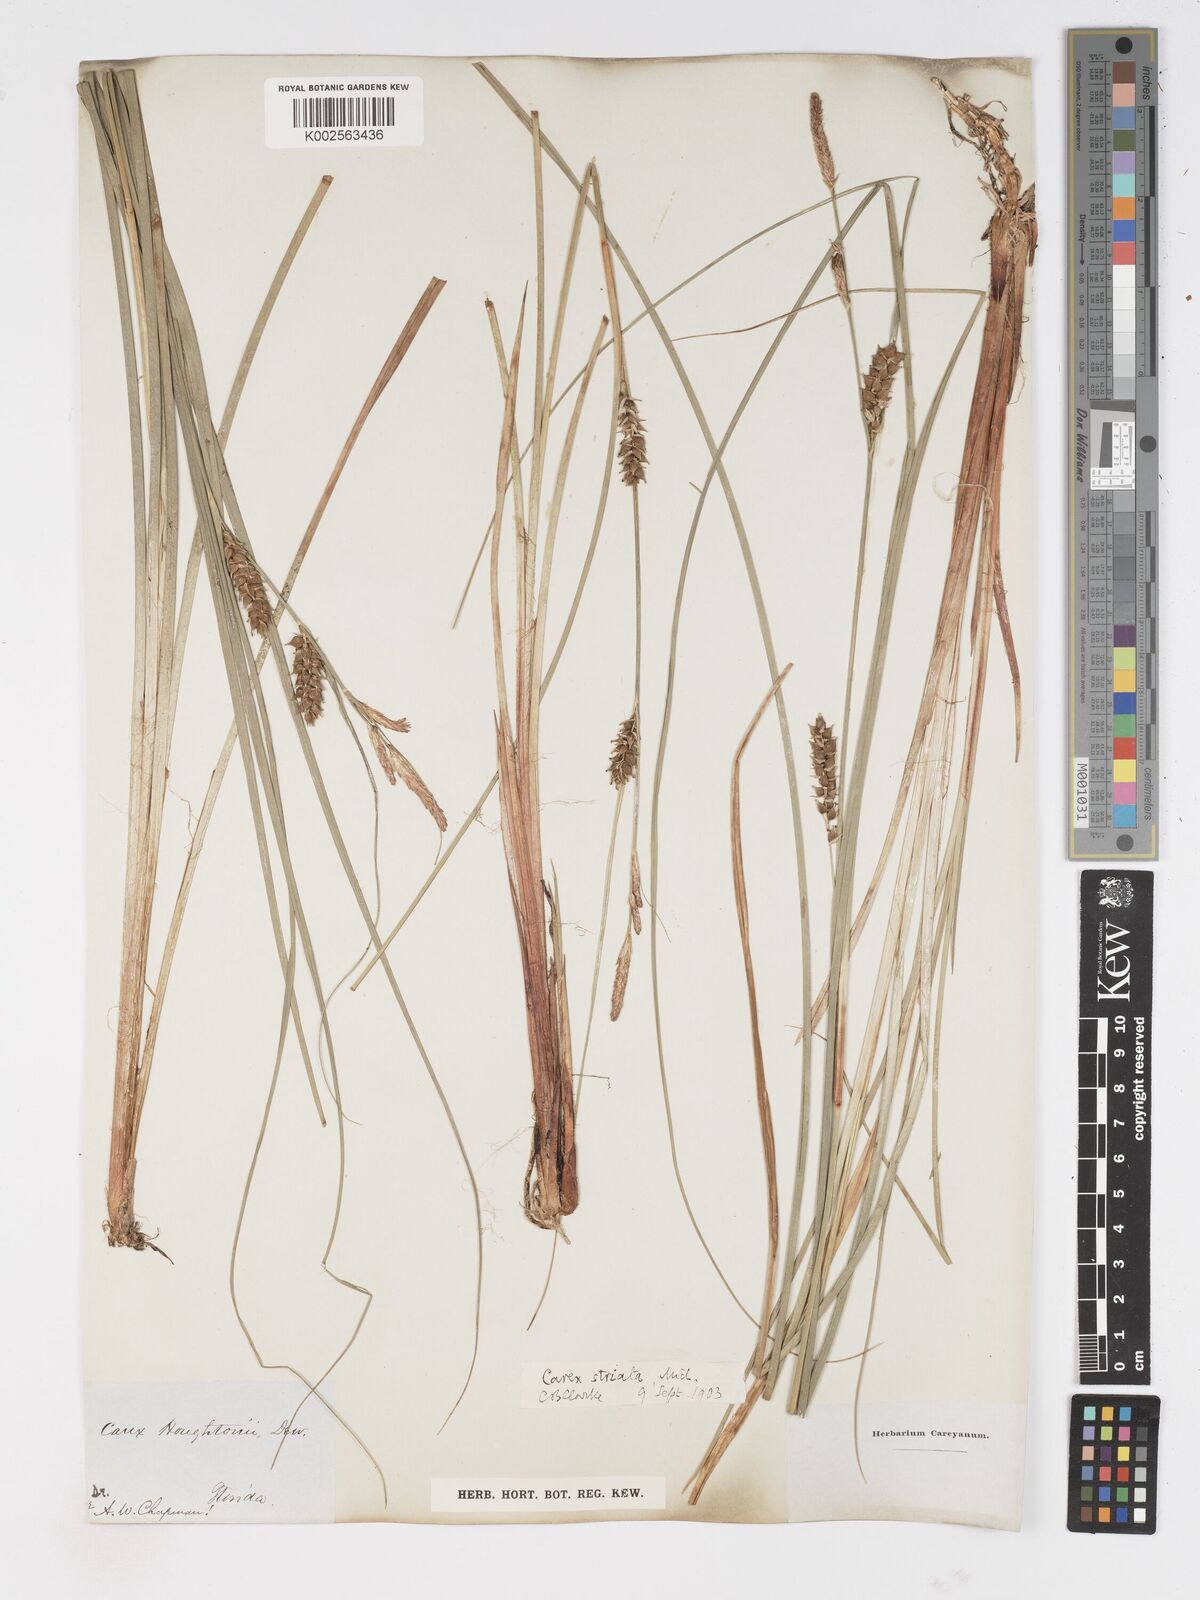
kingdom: Plantae
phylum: Tracheophyta
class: Liliopsida
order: Poales
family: Cyperaceae
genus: Carex
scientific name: Carex trichocarpa
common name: Hairy-fruited lake sedge
